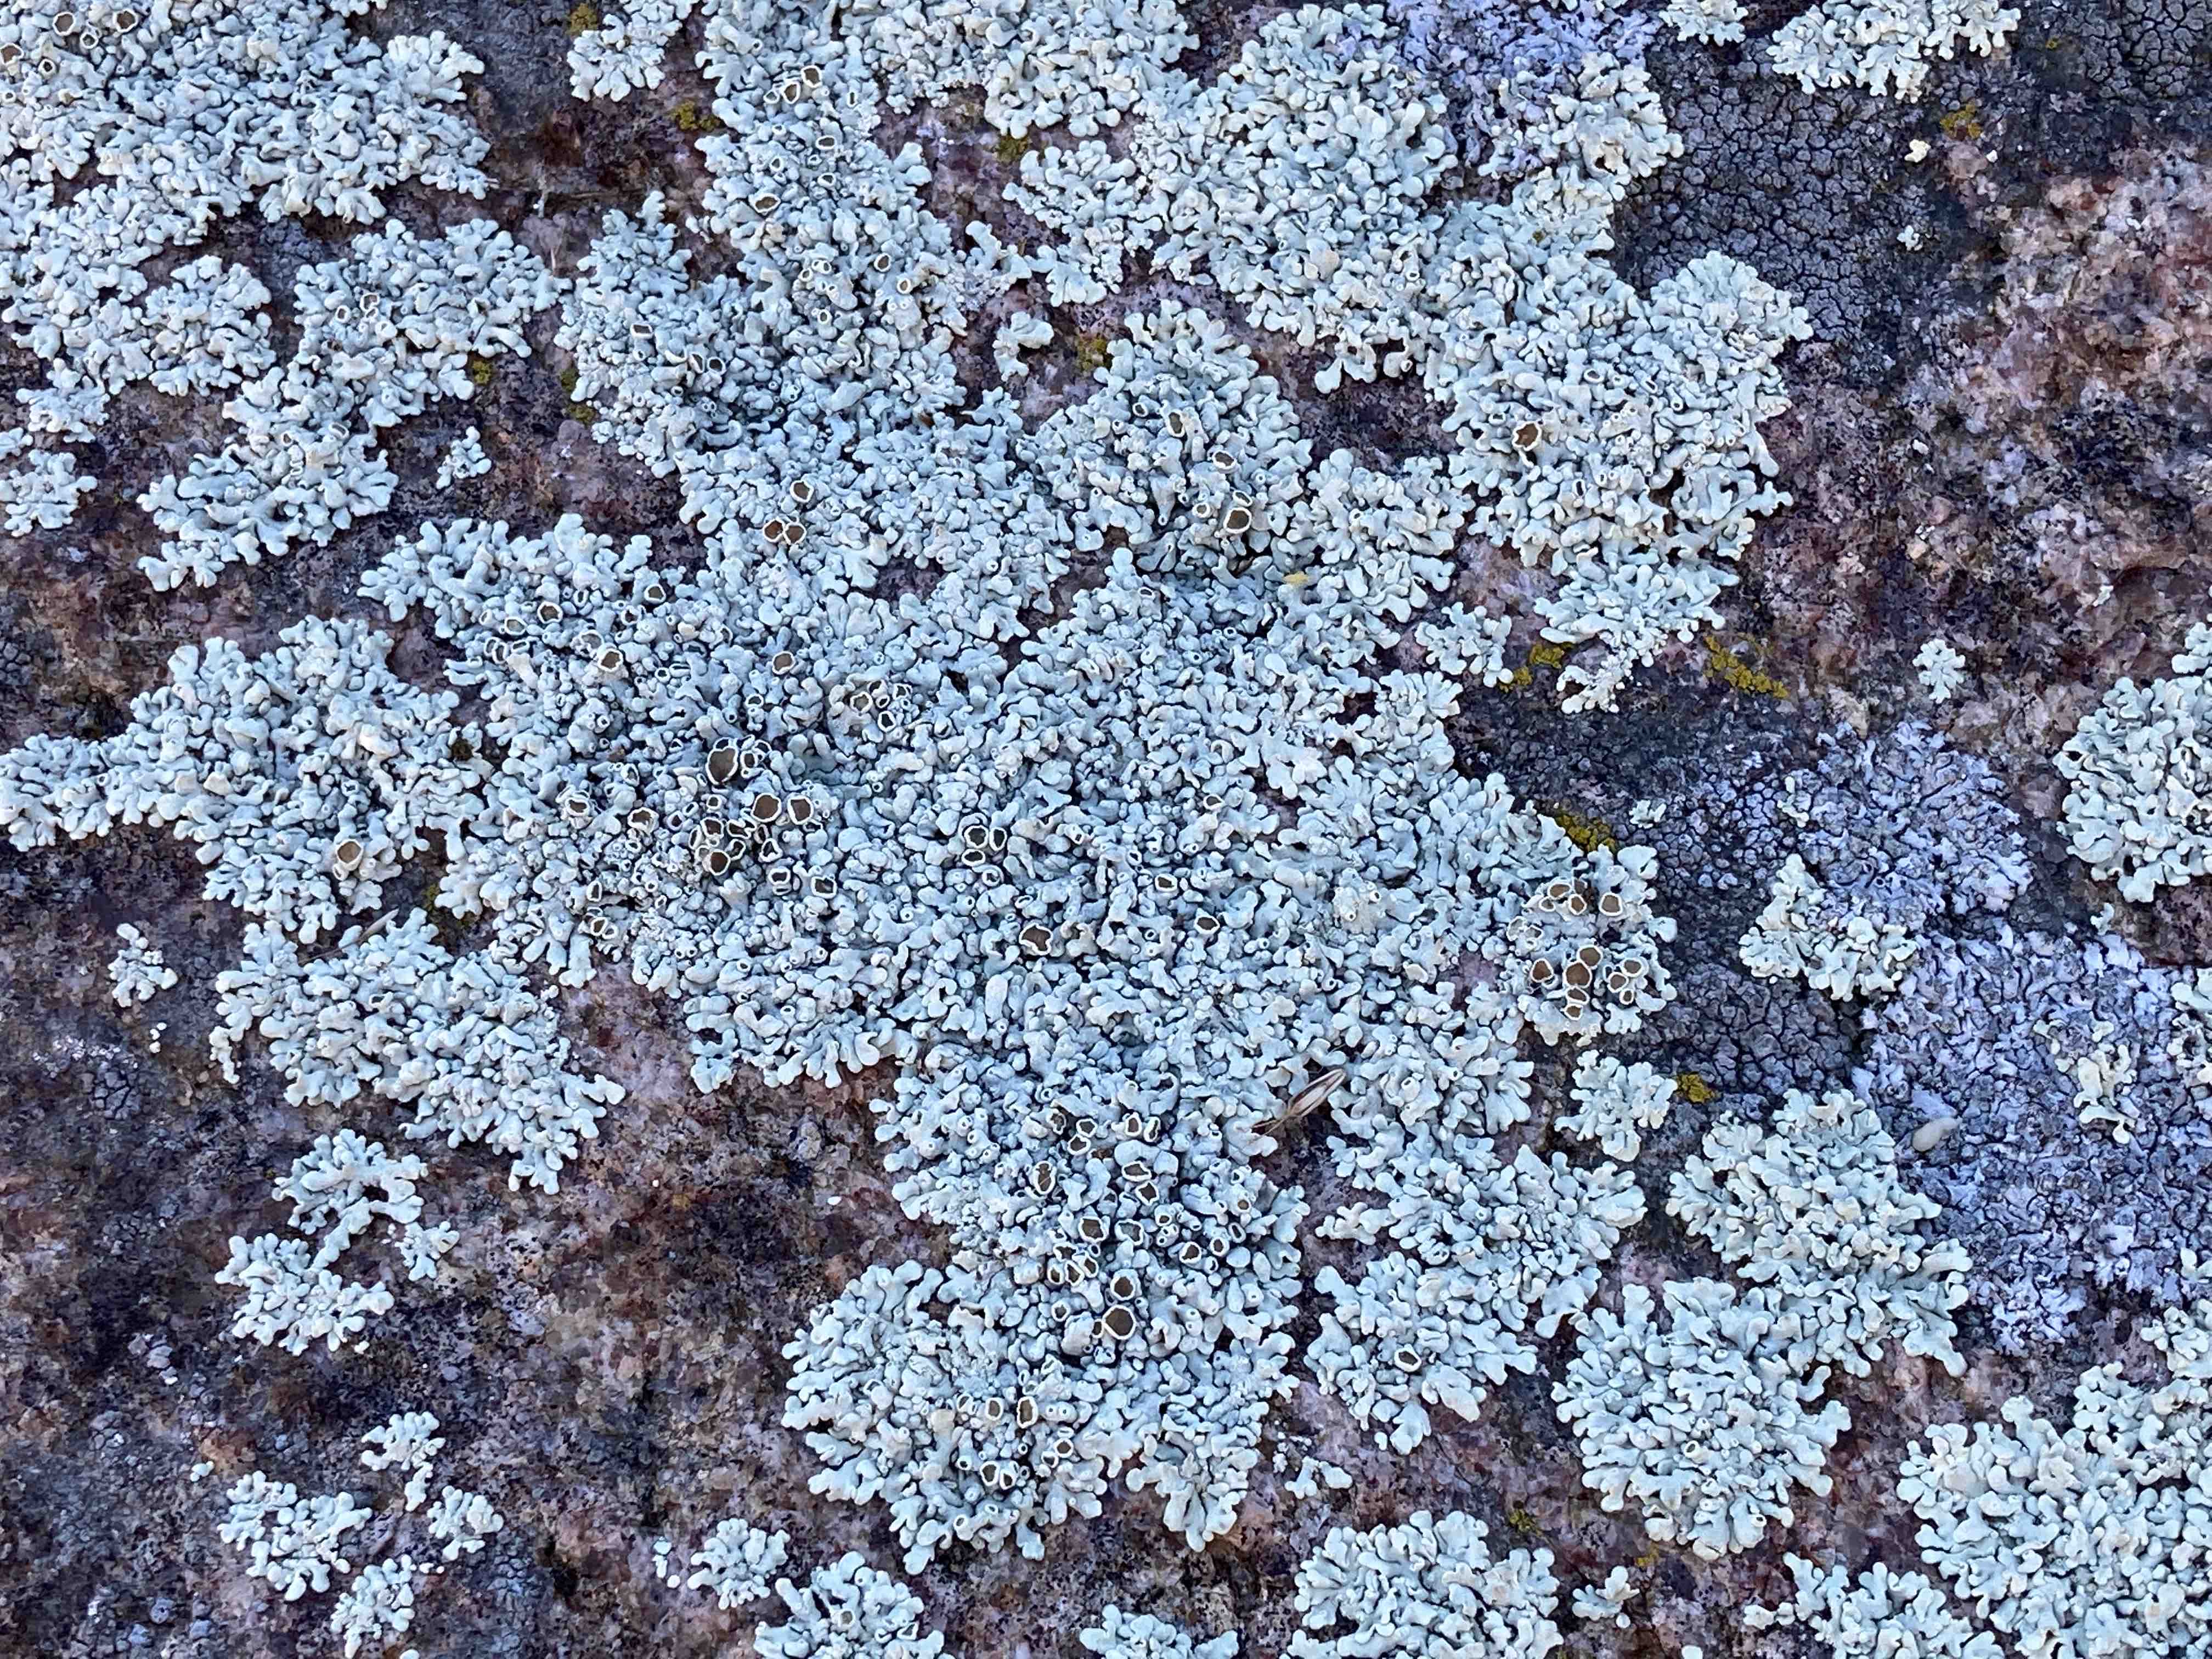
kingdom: Fungi
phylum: Ascomycota
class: Lecanoromycetes
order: Lecanorales
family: Lecanoraceae
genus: Protoparmeliopsis
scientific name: Protoparmeliopsis achariana
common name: tyklobet kantskivelav
